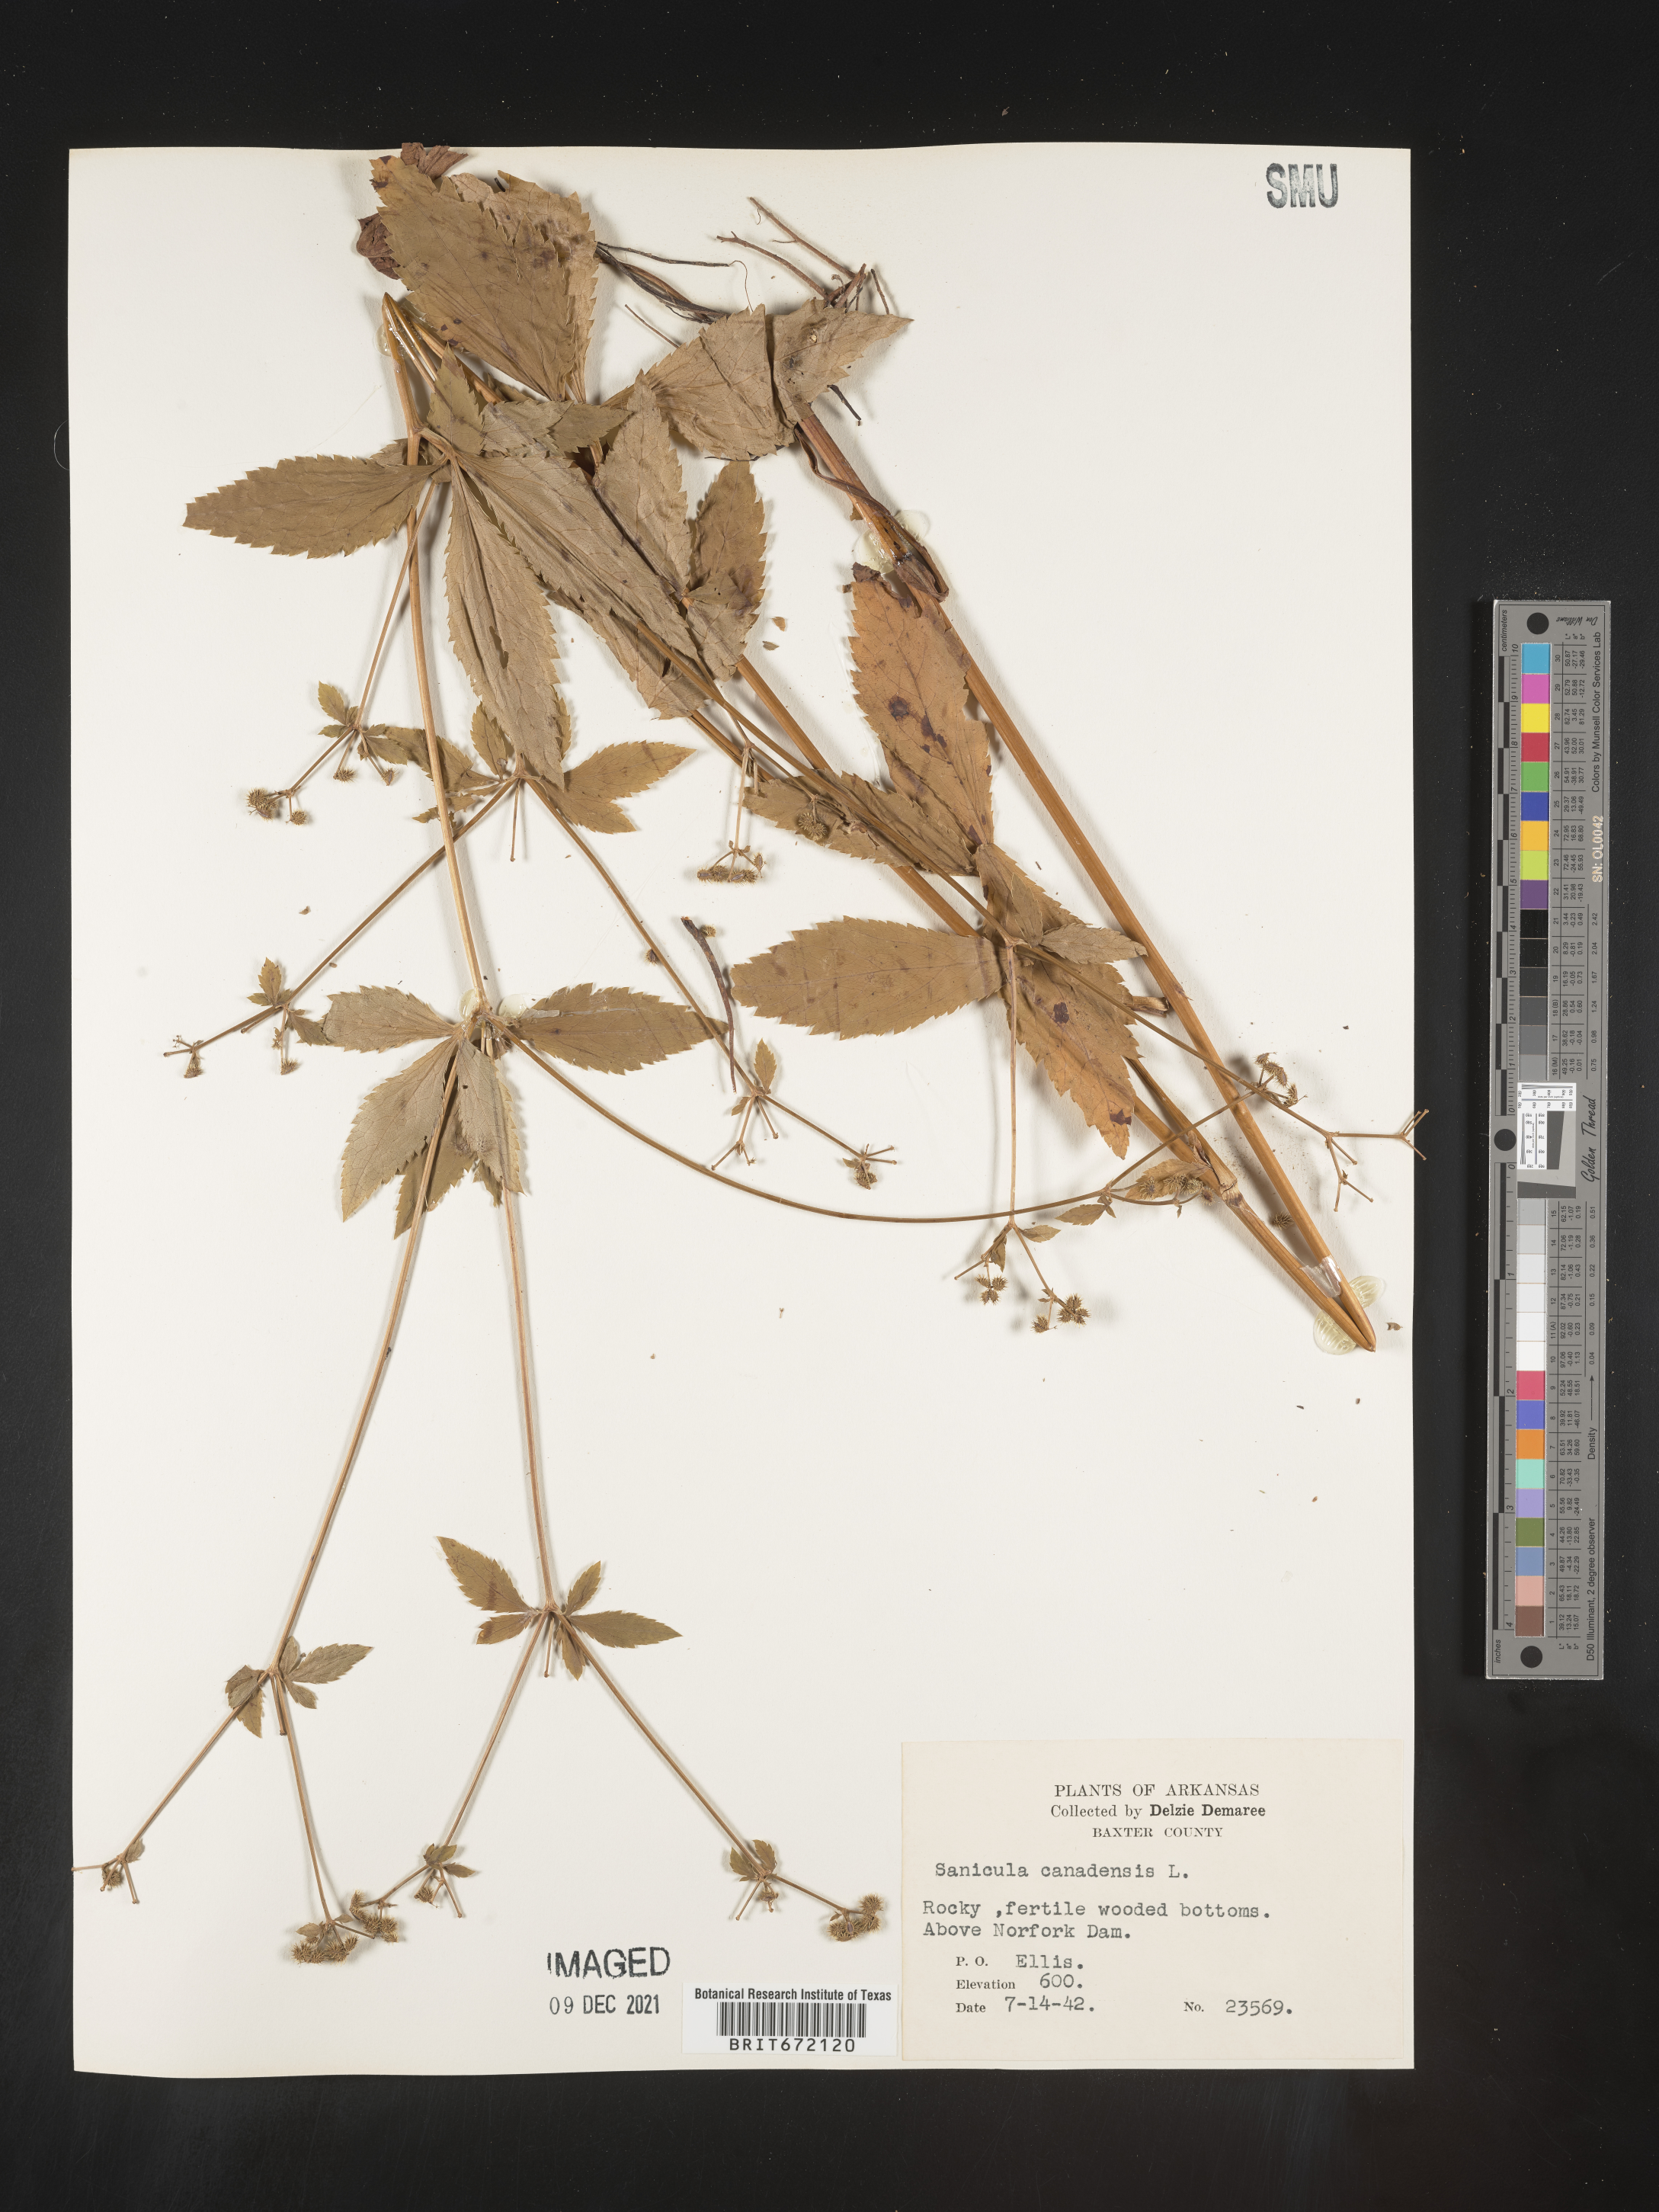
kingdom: Plantae
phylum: Tracheophyta
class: Magnoliopsida
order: Apiales
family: Apiaceae
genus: Sanicula
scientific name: Sanicula canadensis
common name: Canada sanicle
